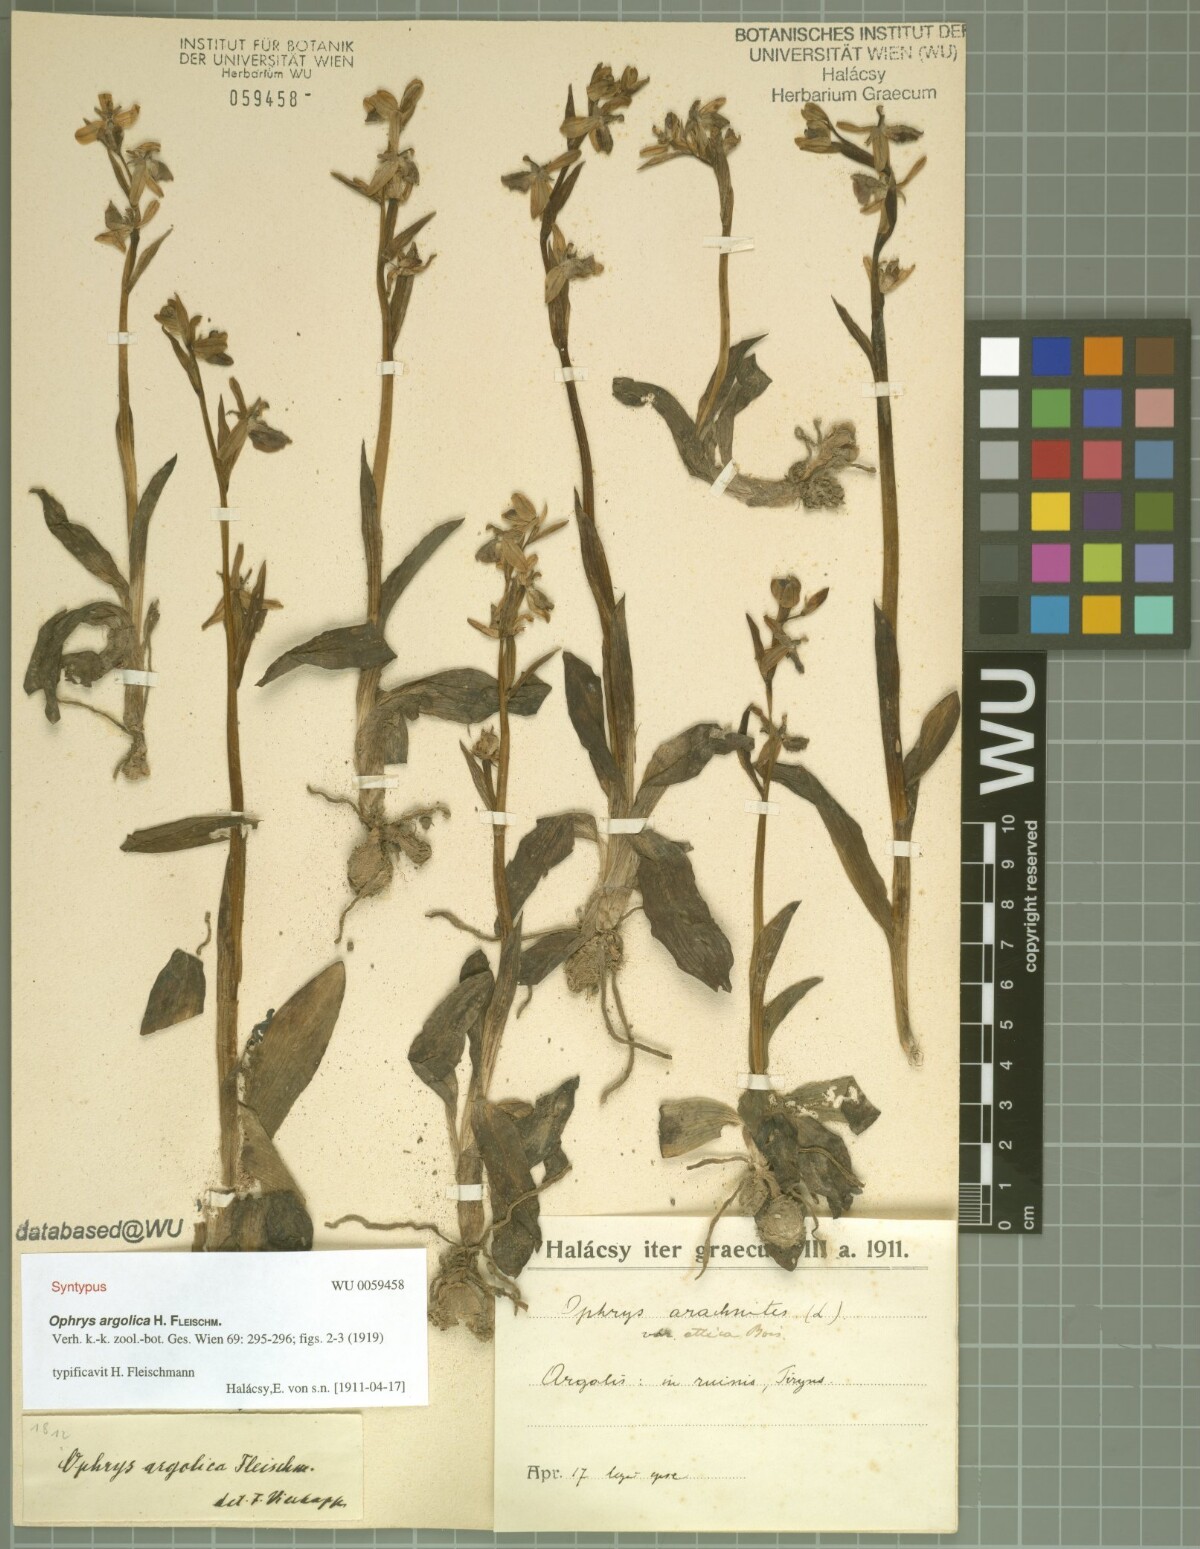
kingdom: Plantae
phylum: Tracheophyta
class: Liliopsida
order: Asparagales
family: Orchidaceae
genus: Ophrys
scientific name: Ophrys argolica
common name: Argolic ophrys
